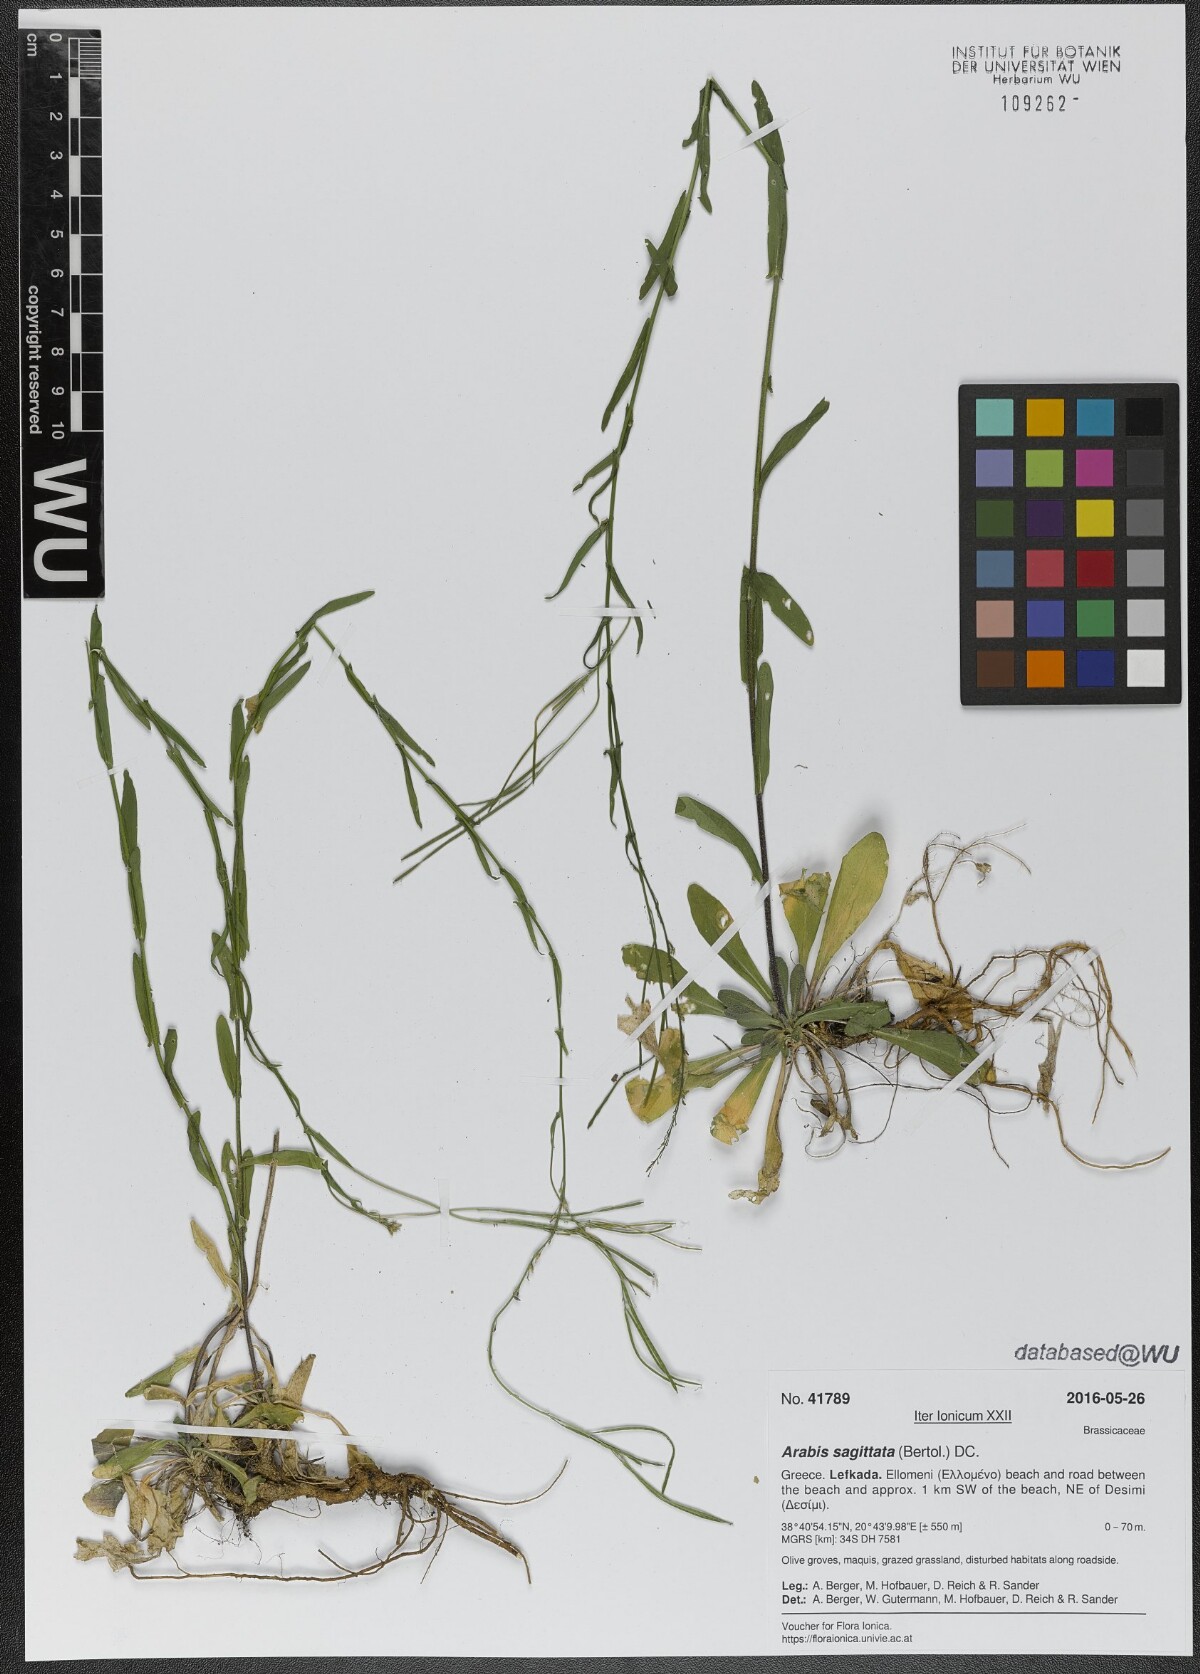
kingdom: Plantae
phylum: Tracheophyta
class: Magnoliopsida
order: Brassicales
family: Brassicaceae
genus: Arabis
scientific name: Arabis sagittata
